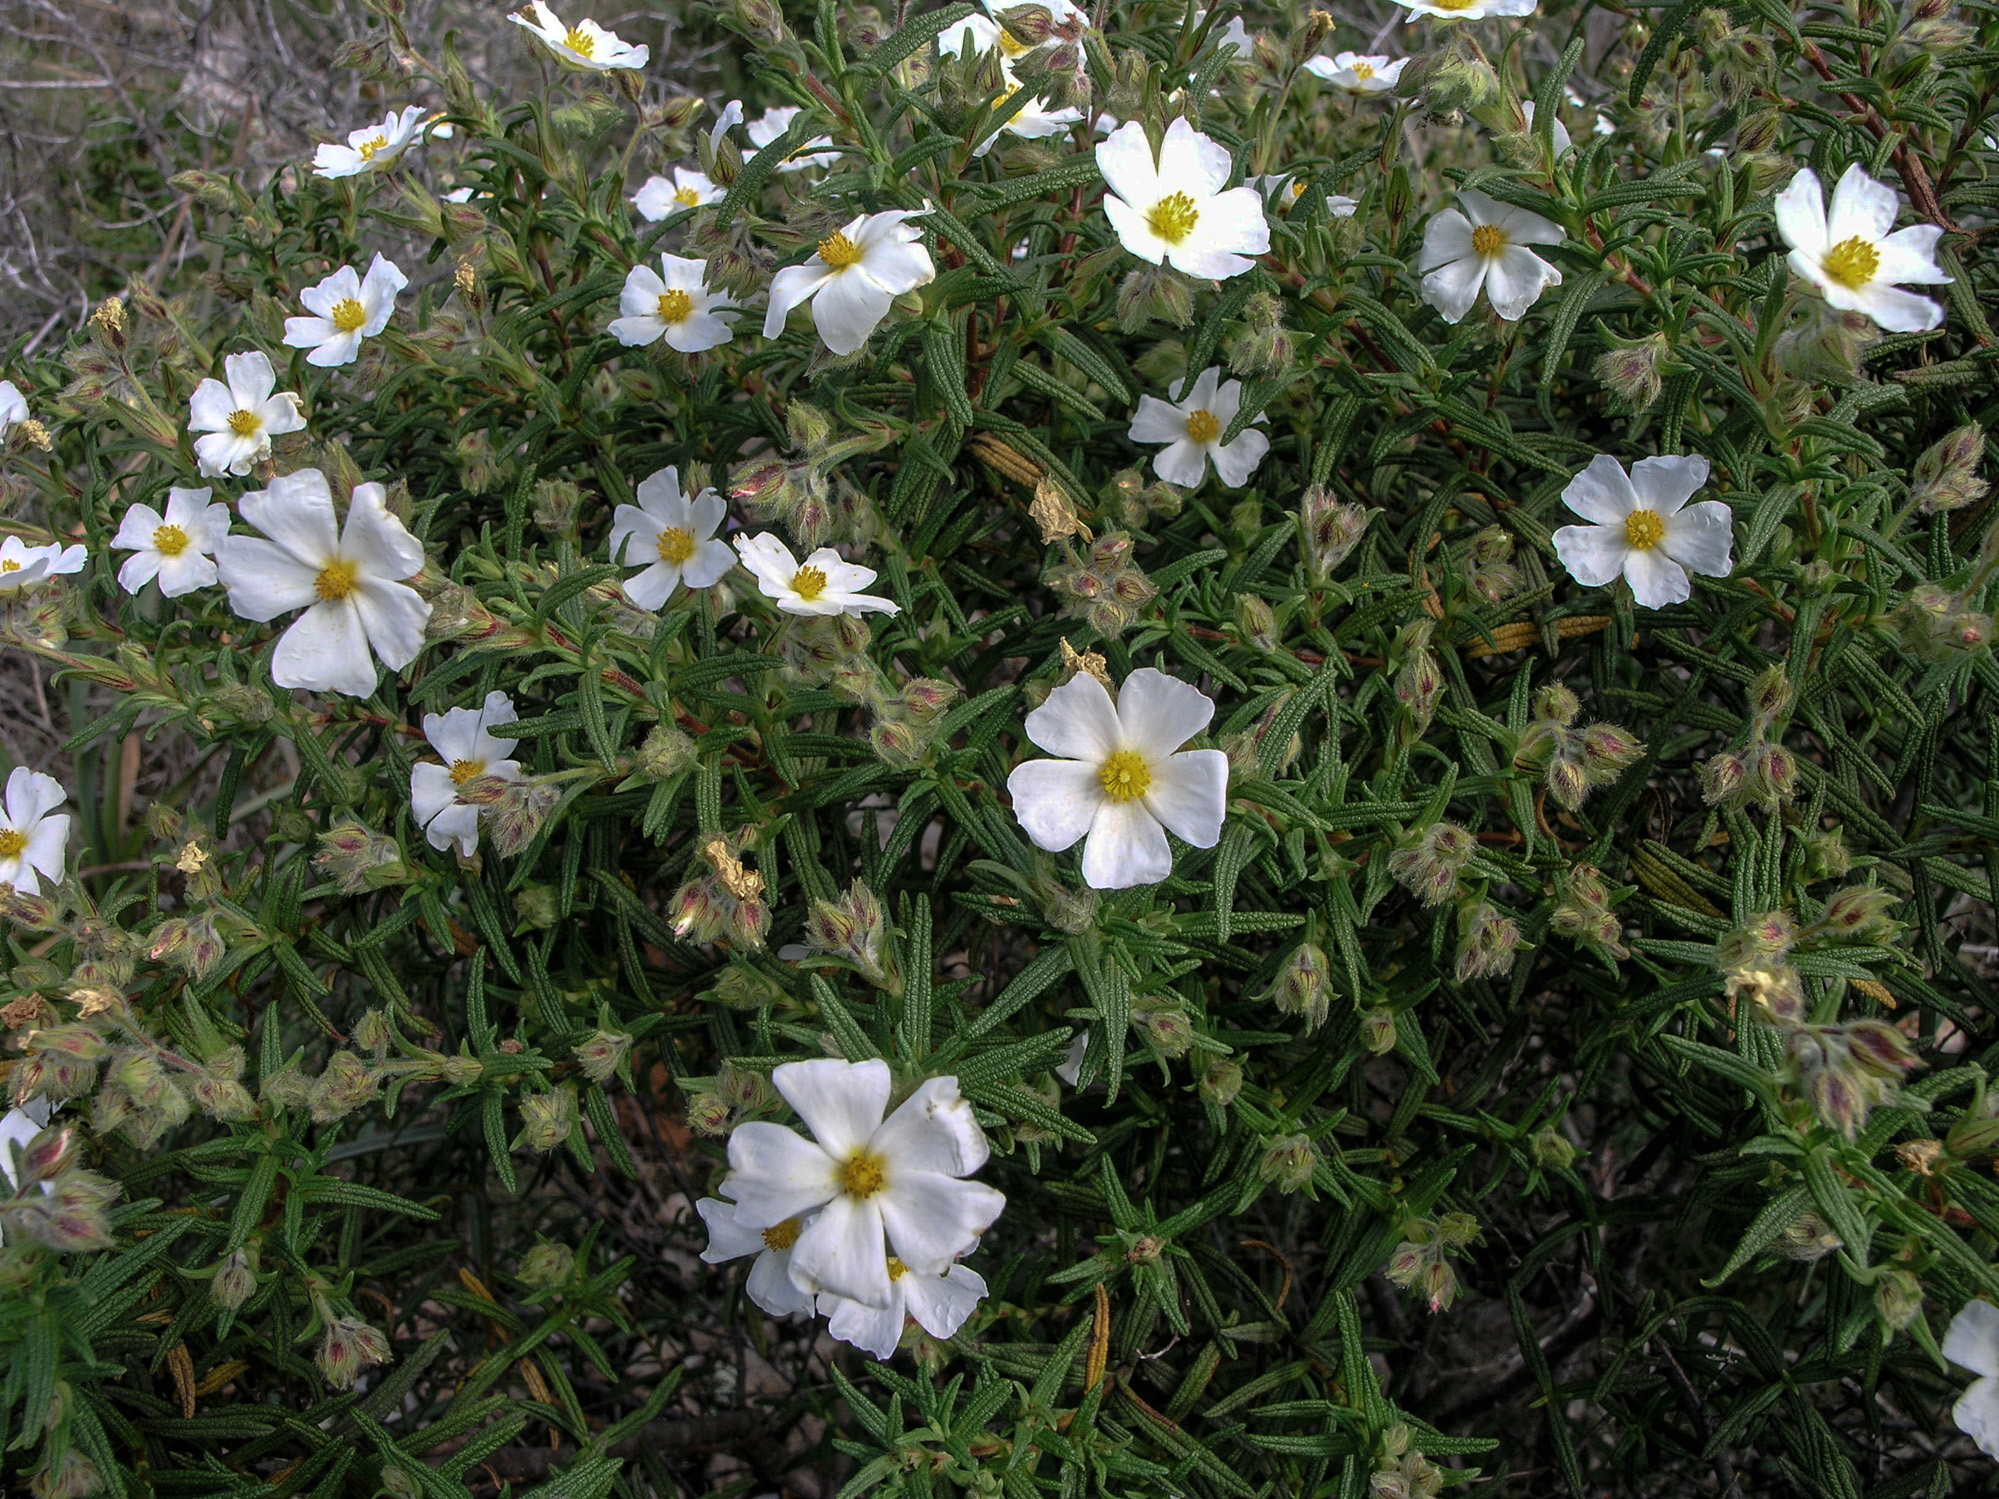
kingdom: Plantae
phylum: Tracheophyta
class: Magnoliopsida
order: Malvales
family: Cistaceae
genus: Cistus
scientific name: Cistus monspeliensis
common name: Montpelier cistus
